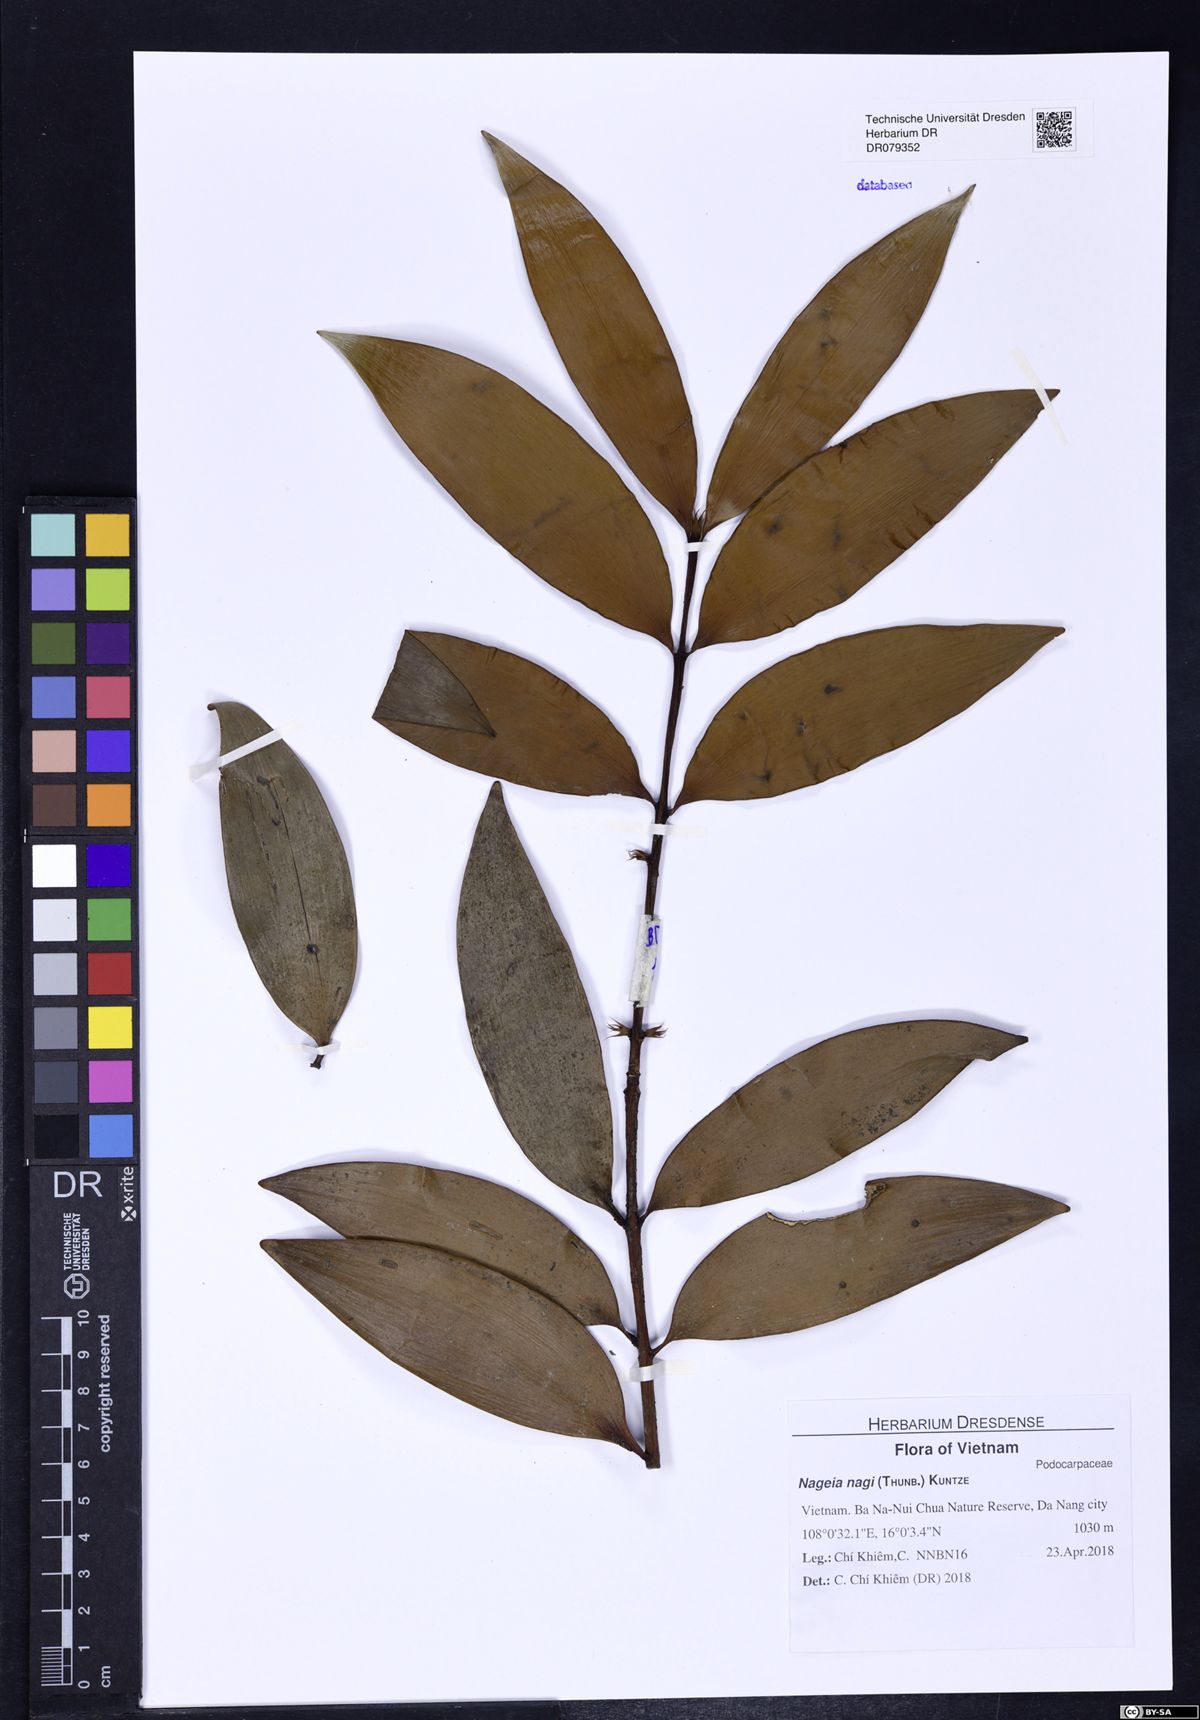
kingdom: Plantae
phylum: Tracheophyta
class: Pinopsida
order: Pinales
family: Podocarpaceae
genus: Nageia
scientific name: Nageia nagi
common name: Kaphal
